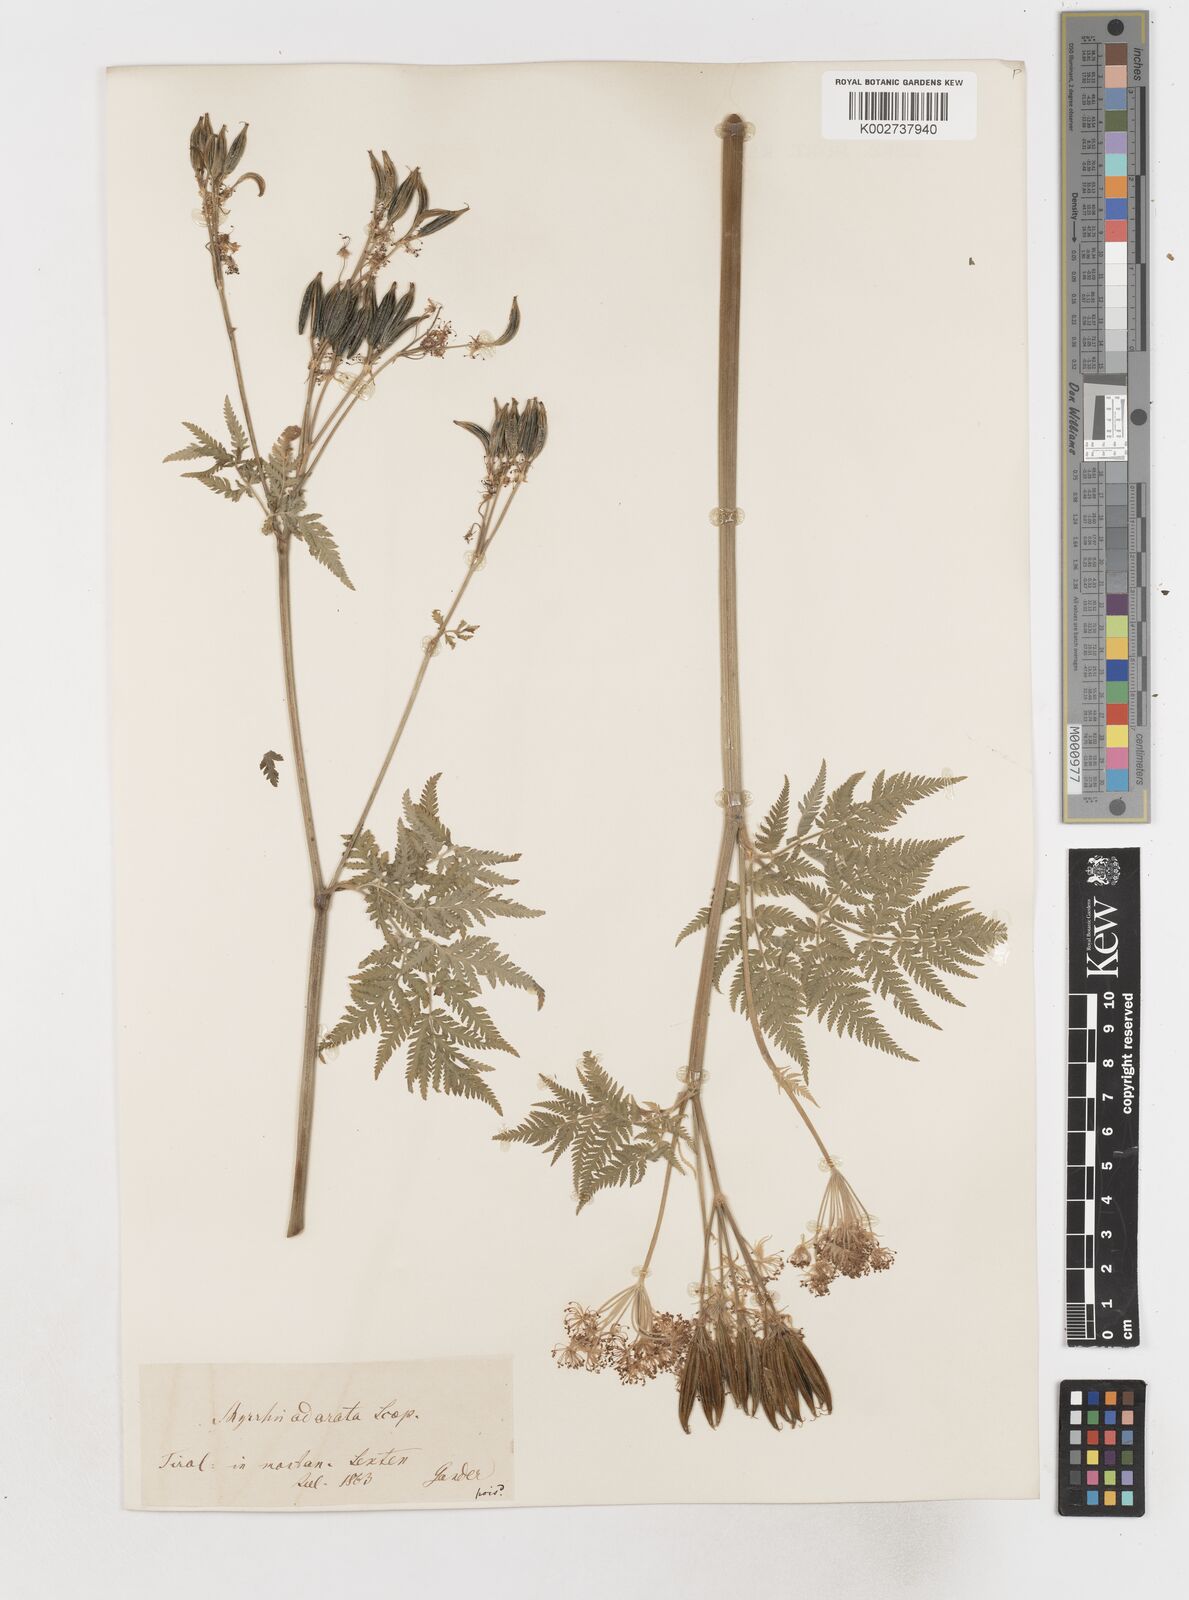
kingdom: Plantae
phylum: Tracheophyta
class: Magnoliopsida
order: Apiales
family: Apiaceae
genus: Myrrhis
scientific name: Myrrhis odorata
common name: Sweet cicely
